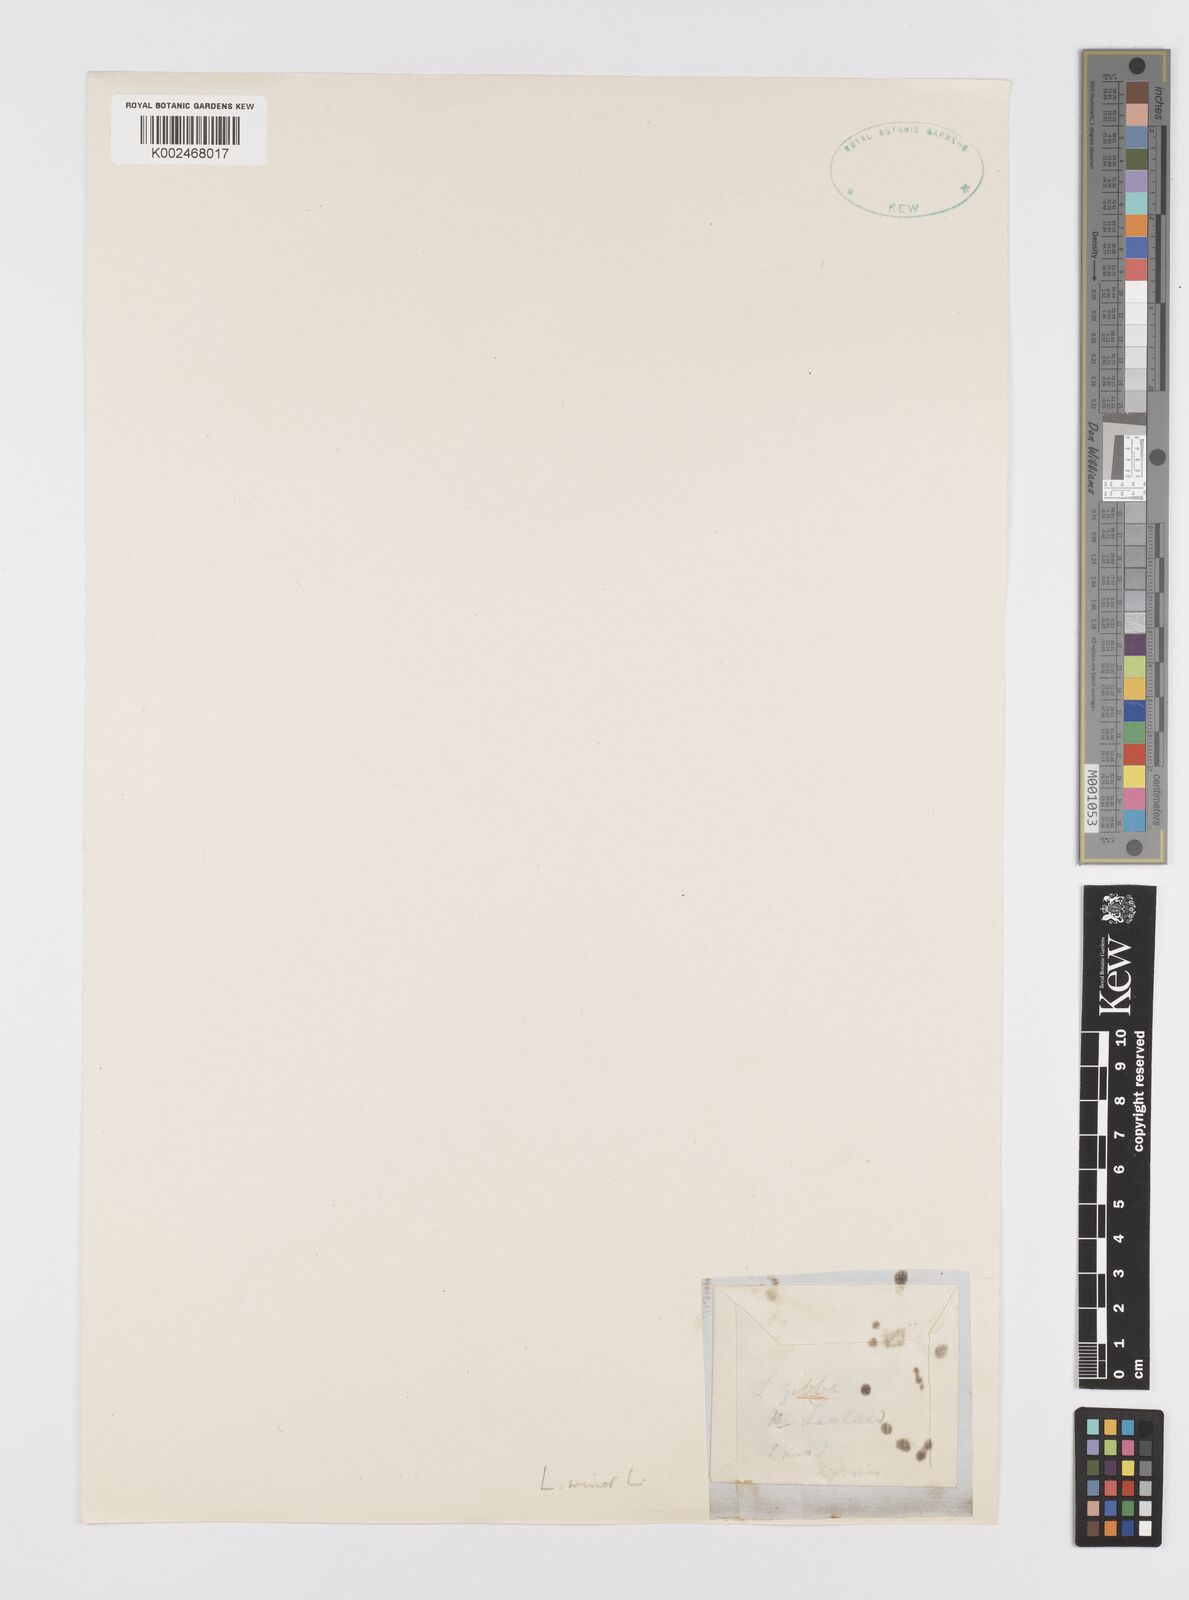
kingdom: Plantae
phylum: Tracheophyta
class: Liliopsida
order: Alismatales
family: Araceae
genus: Lemna
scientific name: Lemna minor
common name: Common duckweed
